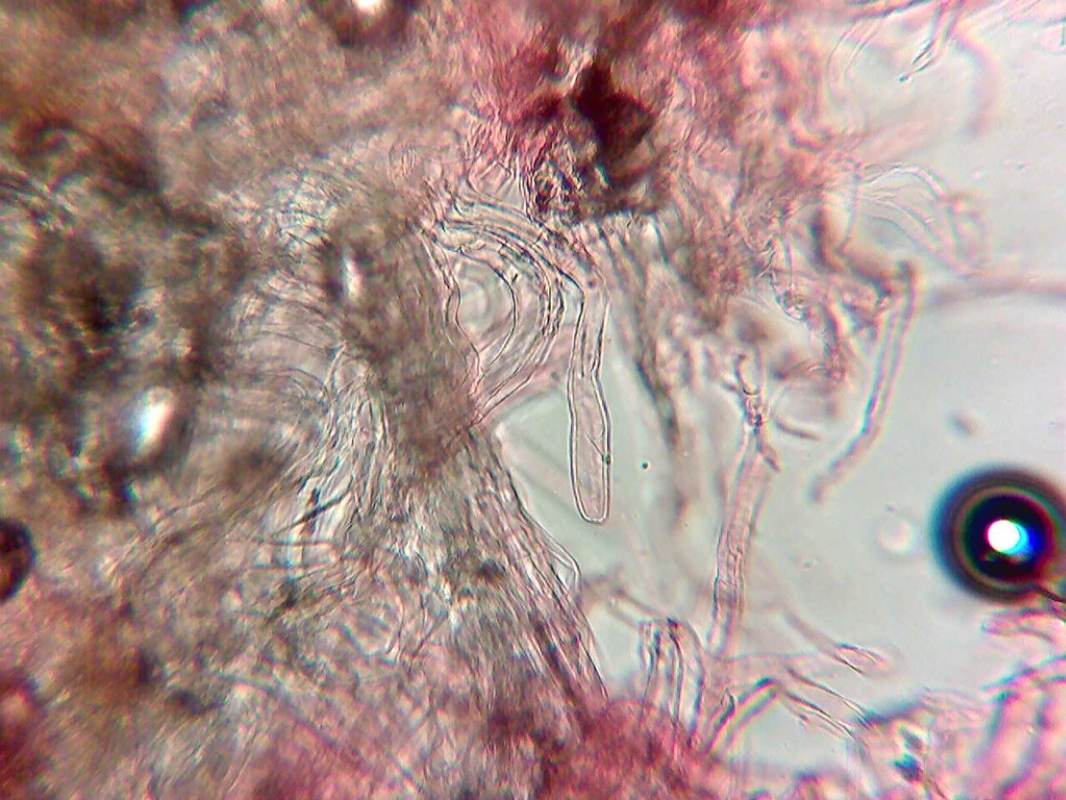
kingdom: Fungi
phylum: Basidiomycota
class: Agaricomycetes
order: Agaricales
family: Amanitaceae
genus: Amanita
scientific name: Amanita
